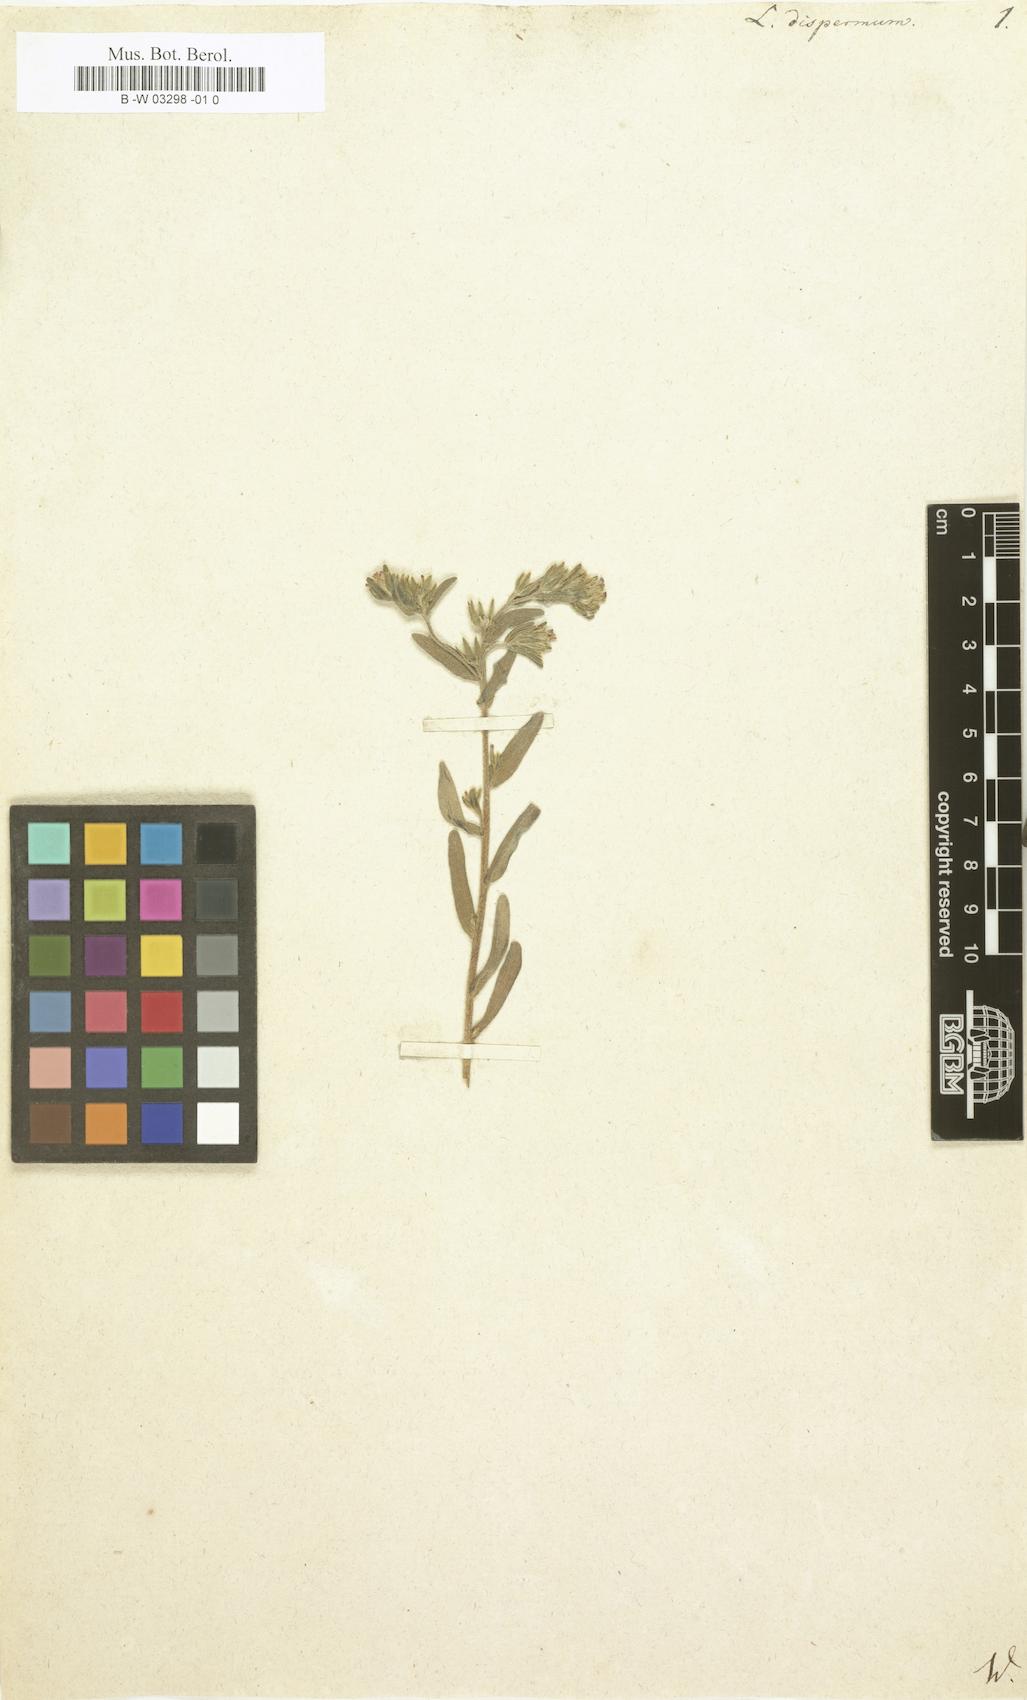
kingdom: Plantae
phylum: Tracheophyta
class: Magnoliopsida
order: Boraginales
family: Boraginaceae
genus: Rochelia
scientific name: Rochelia disperma
